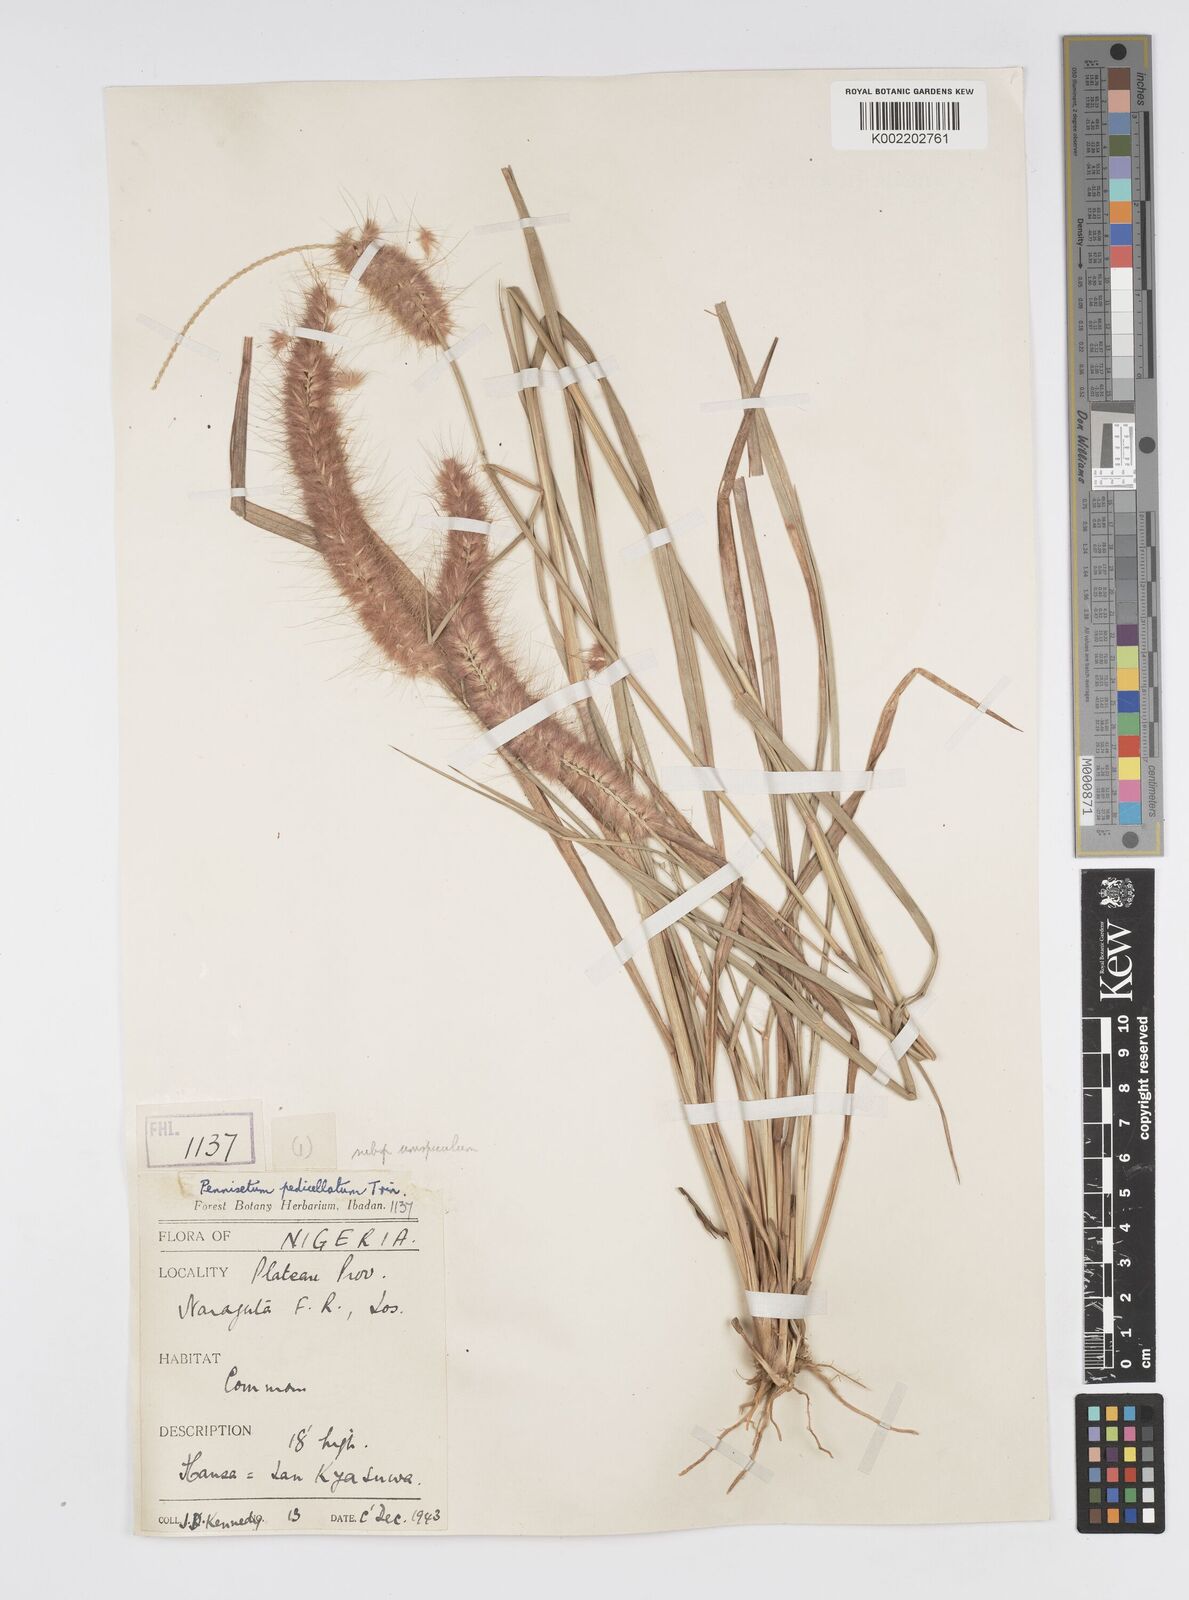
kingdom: Plantae
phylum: Tracheophyta
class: Liliopsida
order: Poales
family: Poaceae
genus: Cenchrus
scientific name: Cenchrus pedicellatus
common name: Hairy fountain grass
